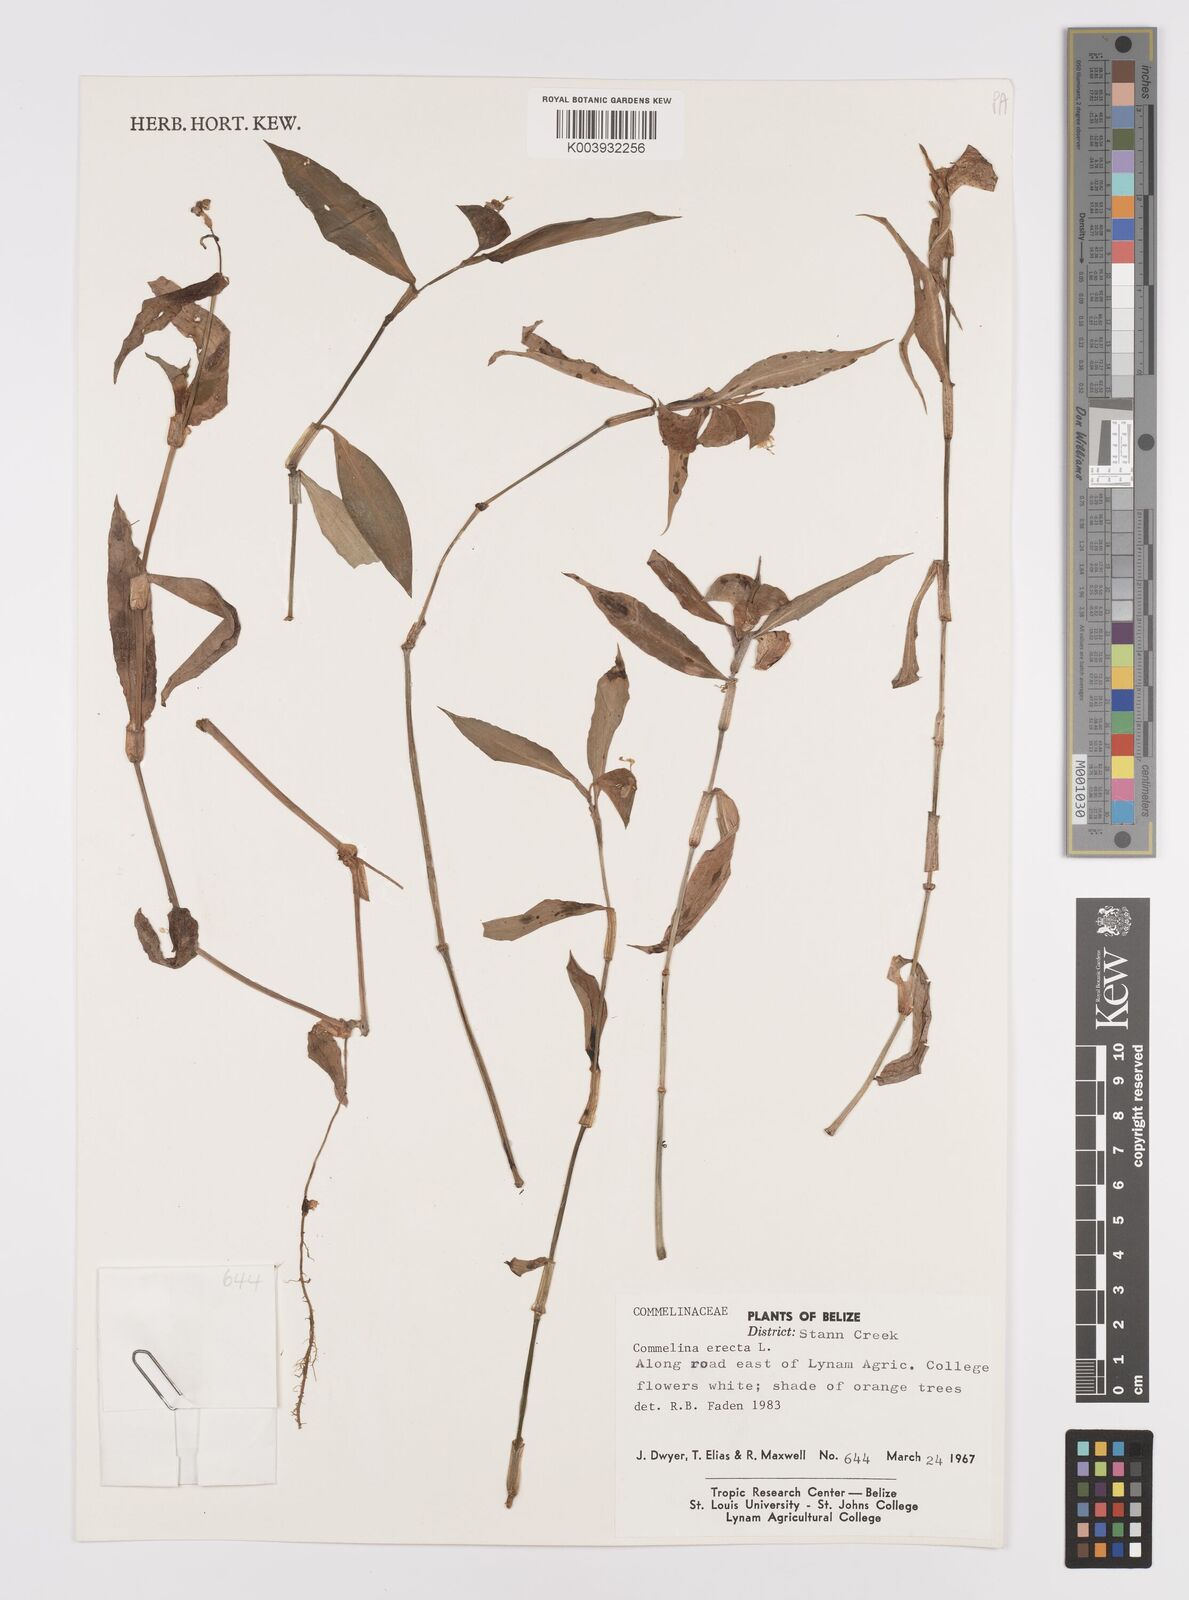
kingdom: Plantae
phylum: Tracheophyta
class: Liliopsida
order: Commelinales
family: Commelinaceae
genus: Commelina
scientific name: Commelina erecta
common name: Blousel blommetjie
